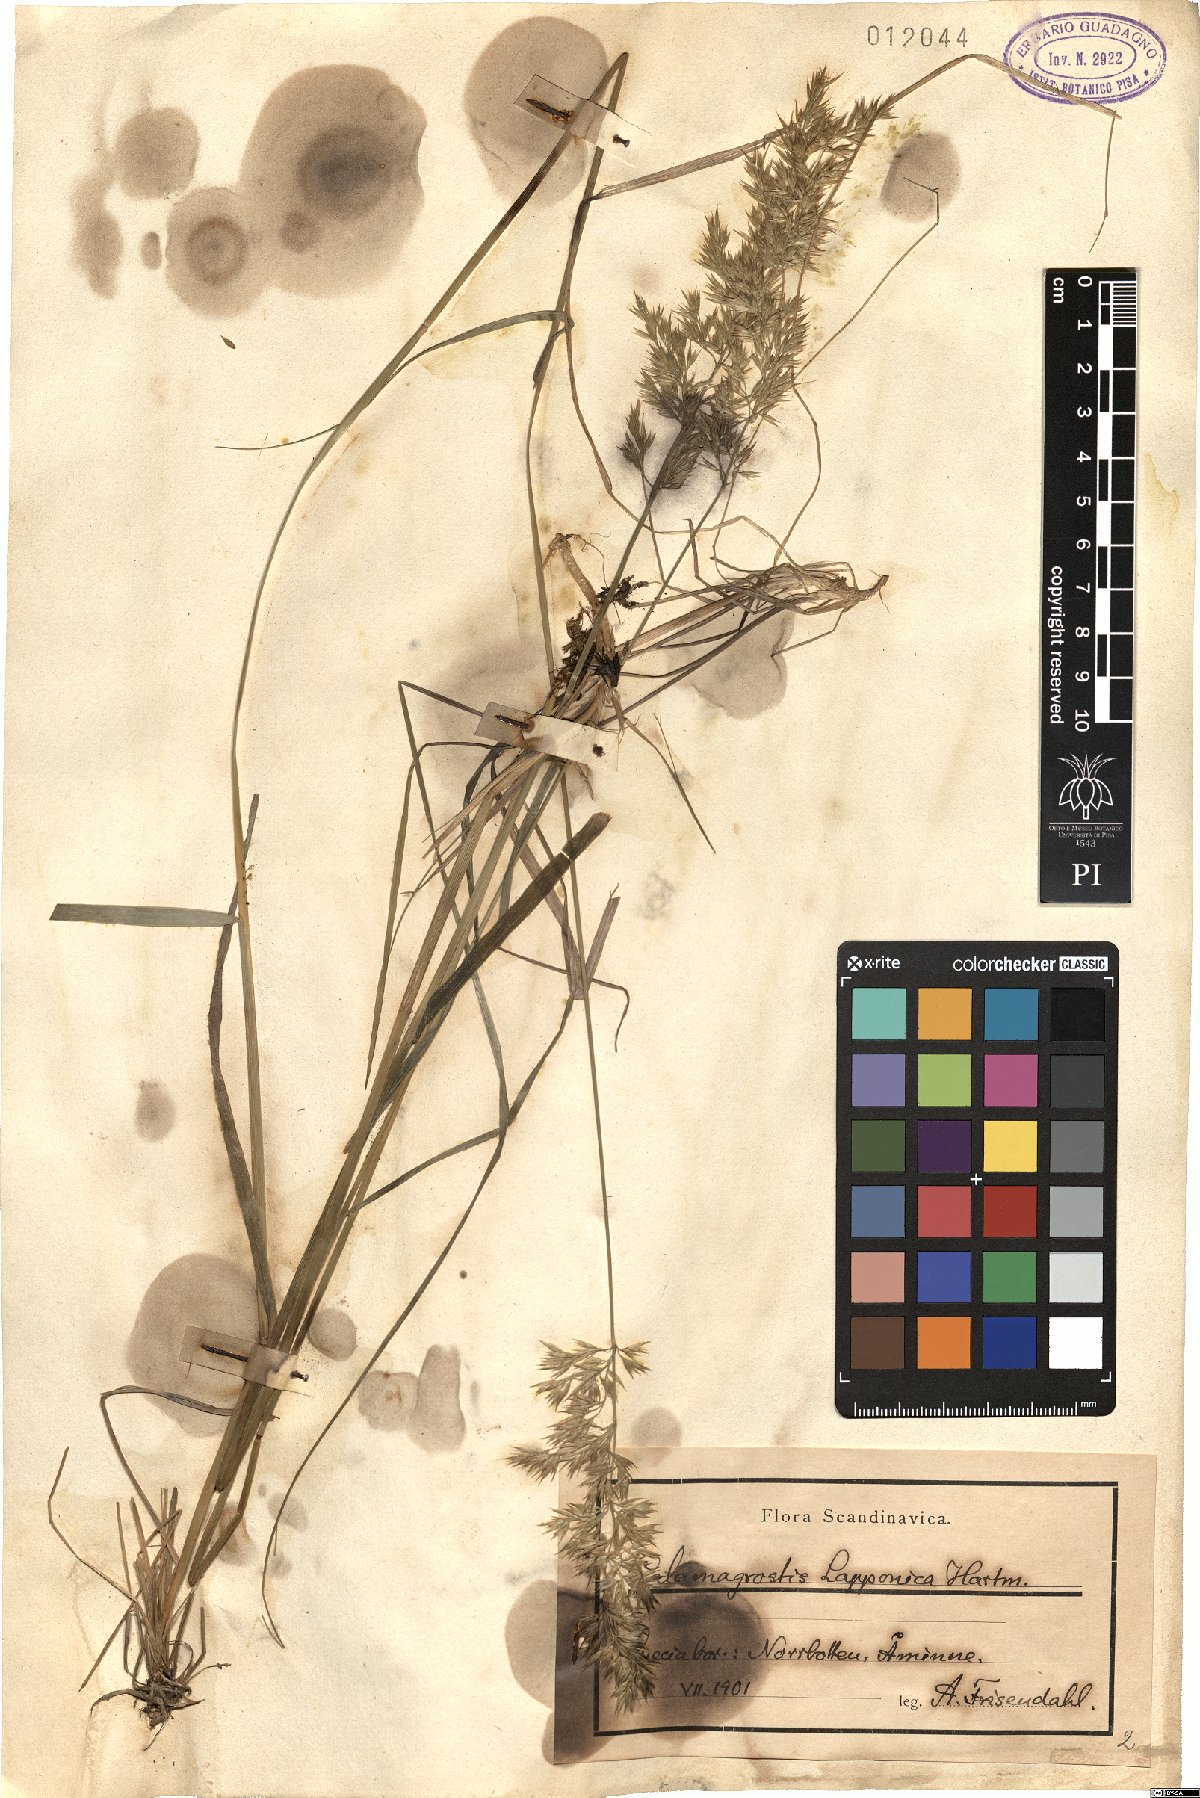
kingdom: Plantae
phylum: Tracheophyta
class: Liliopsida
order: Poales
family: Poaceae
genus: Calamagrostis
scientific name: Calamagrostis lapponica
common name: Lapland reedgrass
